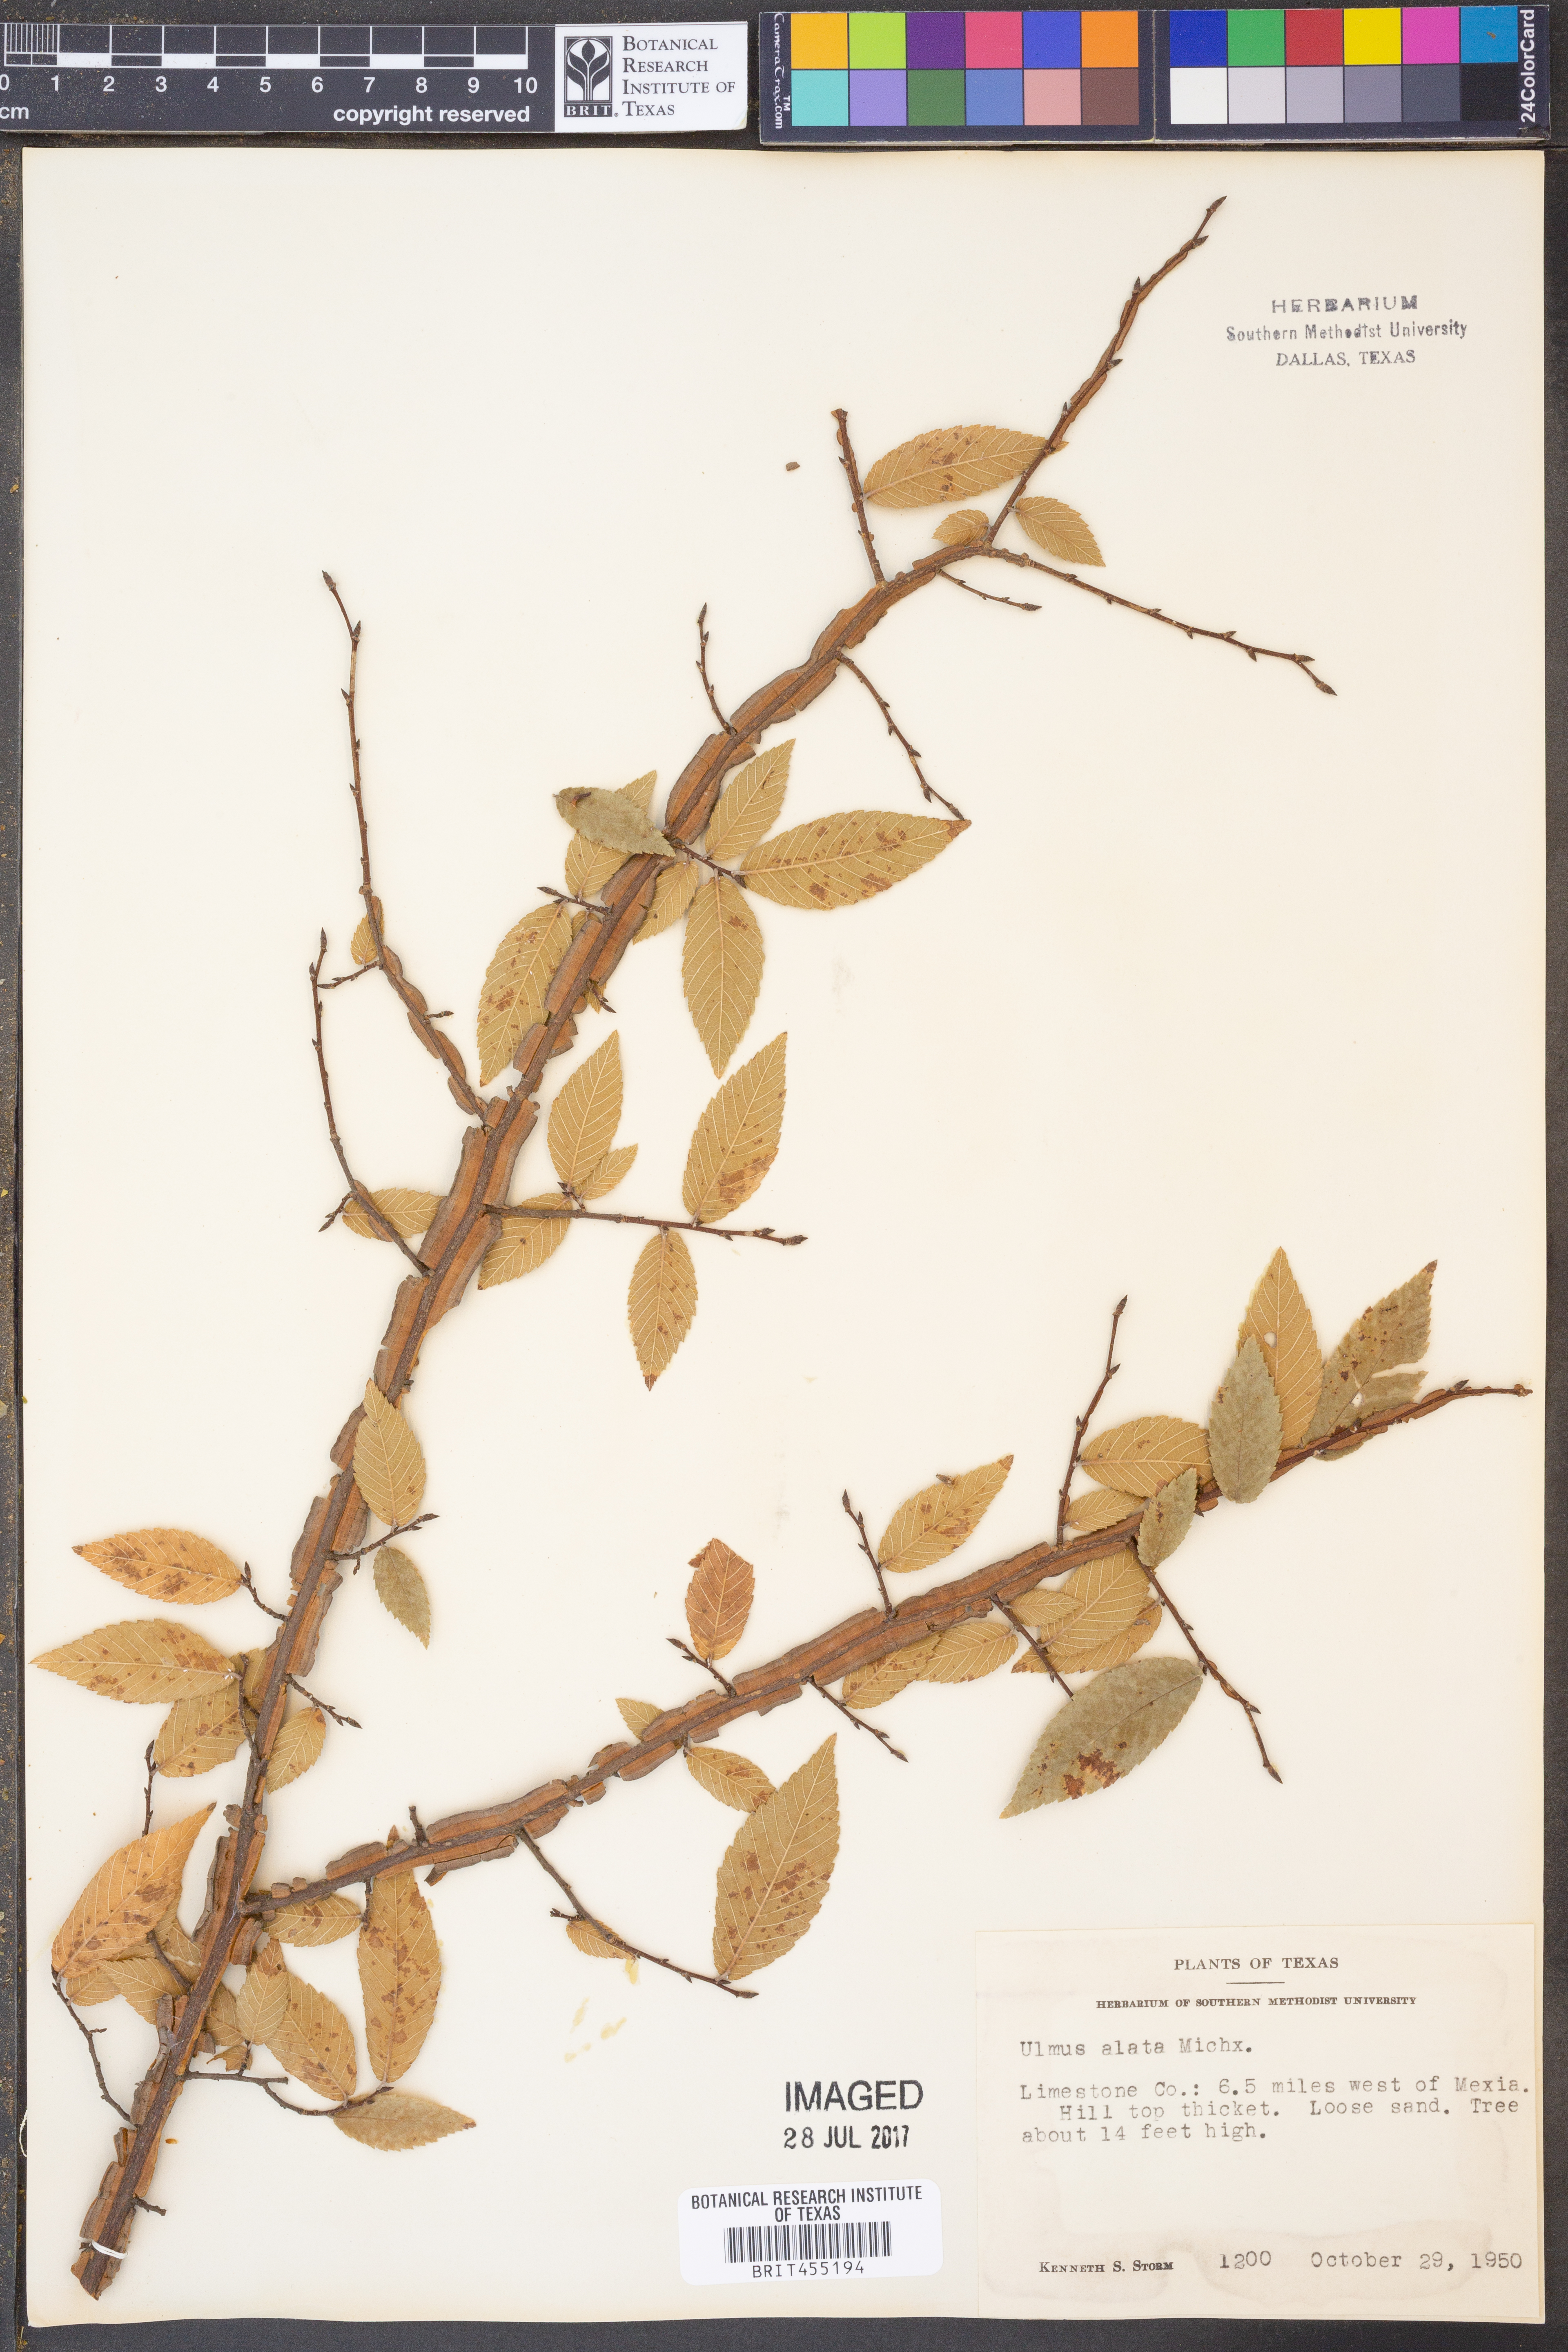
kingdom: Plantae
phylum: Tracheophyta
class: Magnoliopsida
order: Rosales
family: Ulmaceae
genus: Ulmus
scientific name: Ulmus alata
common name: Winged elm
